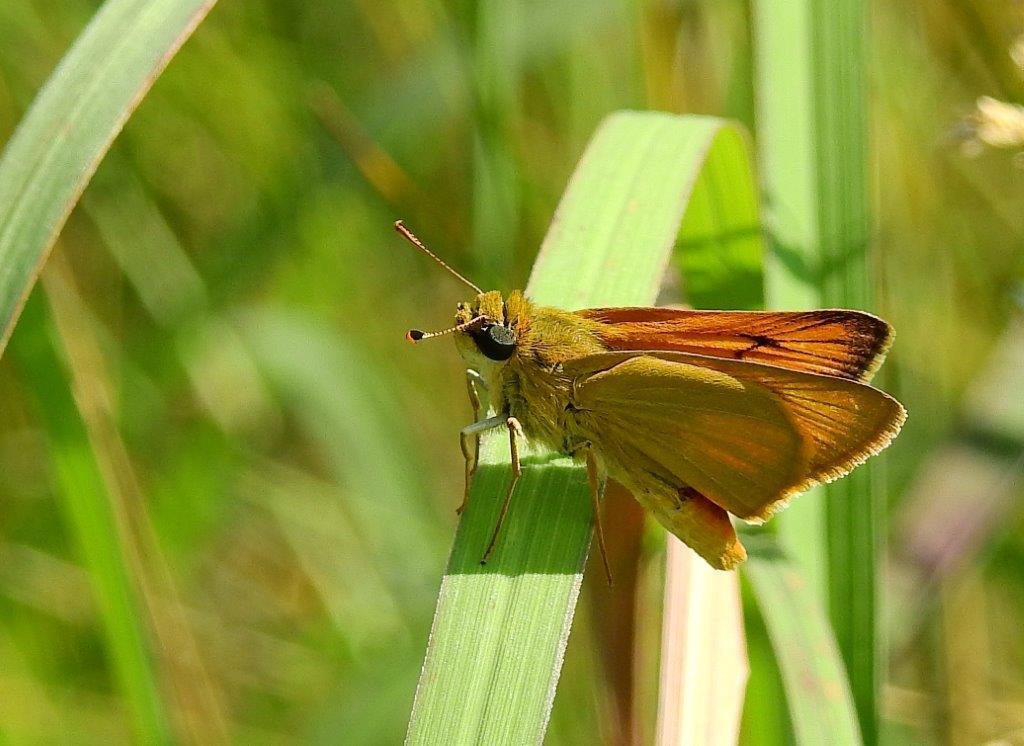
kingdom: Animalia
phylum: Arthropoda
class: Insecta
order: Lepidoptera
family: Hesperiidae
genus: Atrytone
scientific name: Atrytone delaware
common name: Delaware Skipper
